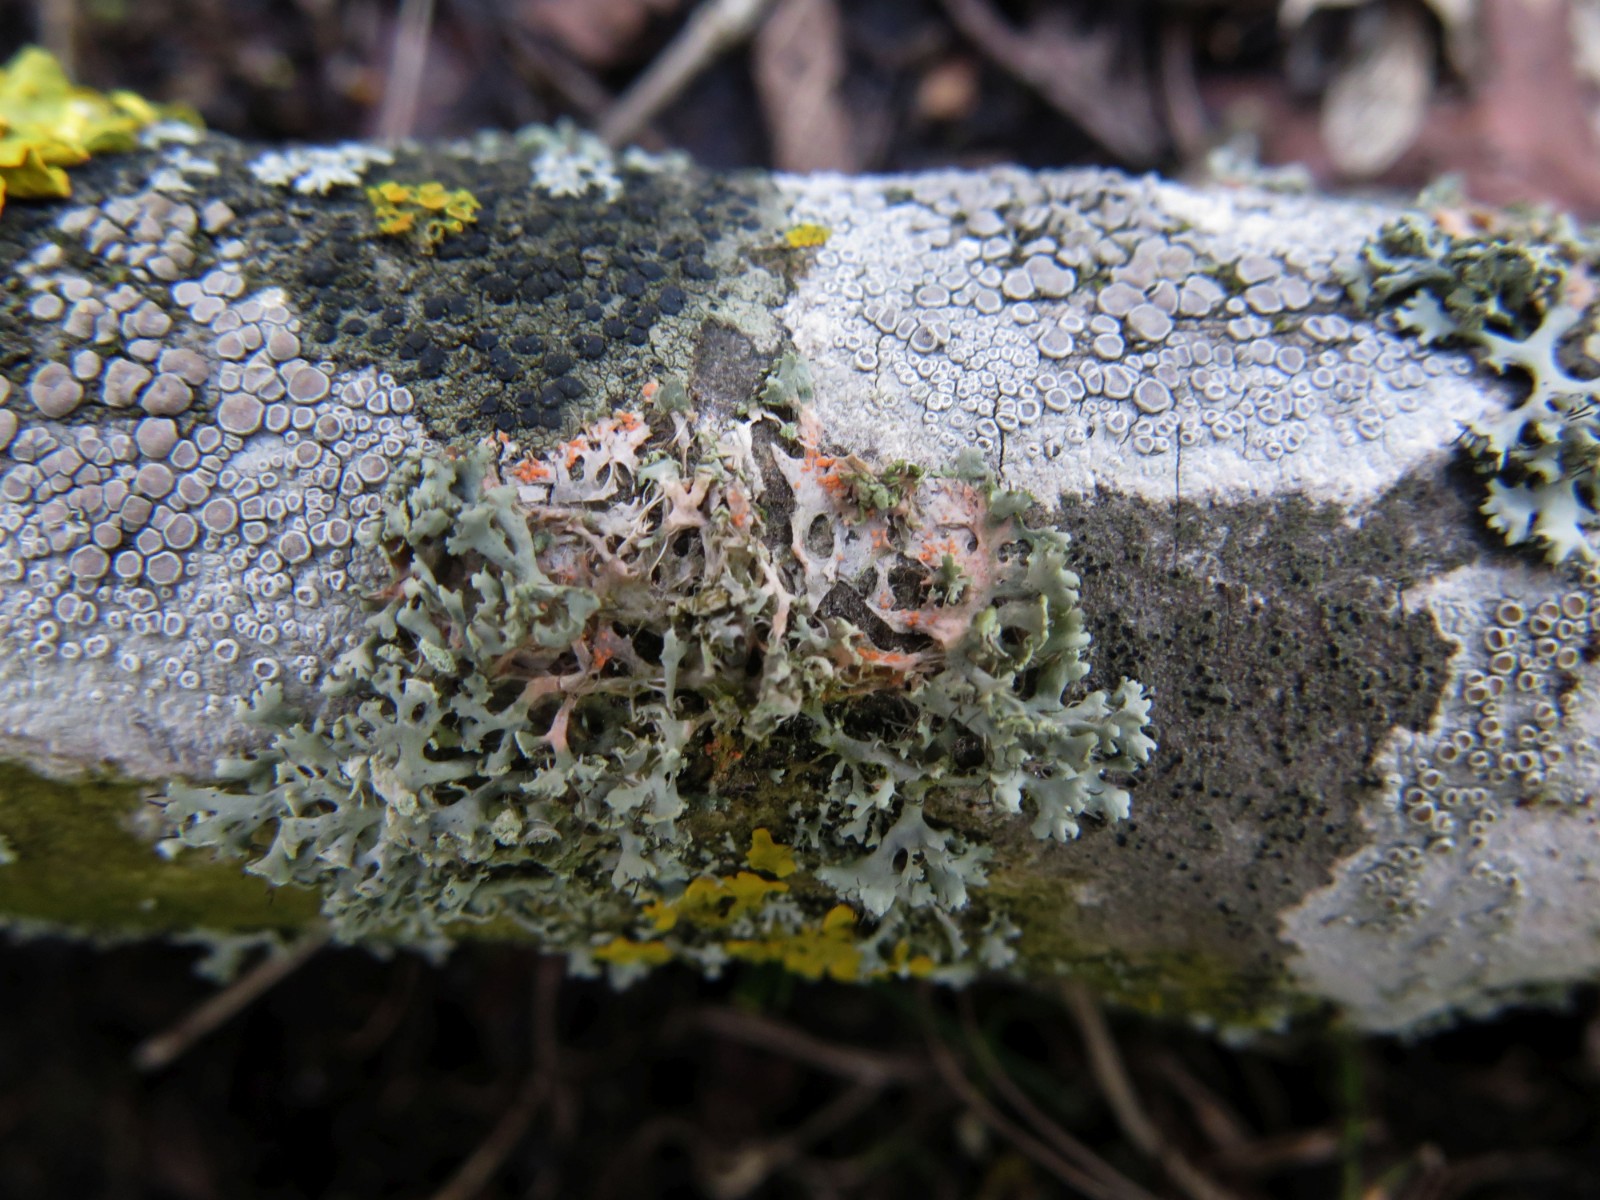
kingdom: Fungi
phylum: Basidiomycota
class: Agaricomycetes
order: Corticiales
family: Corticiaceae
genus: Erythricium
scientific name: Erythricium aurantiacum
